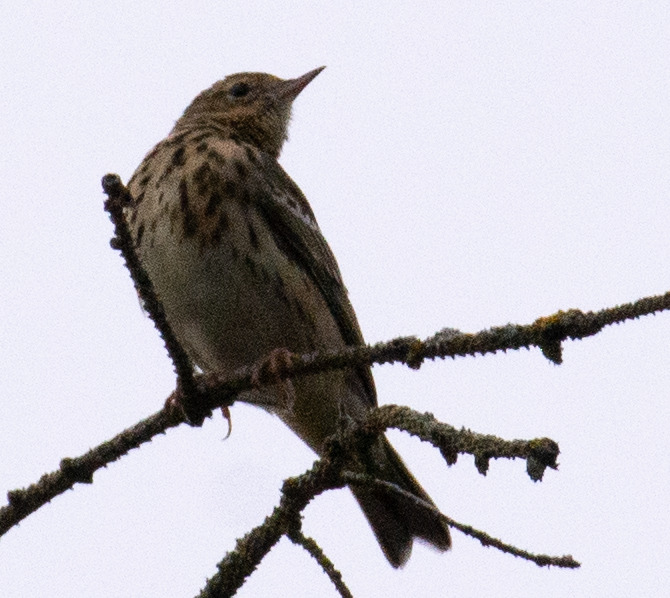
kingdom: Animalia
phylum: Chordata
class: Aves
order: Passeriformes
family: Motacillidae
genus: Anthus
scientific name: Anthus trivialis
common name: Skovpiber
